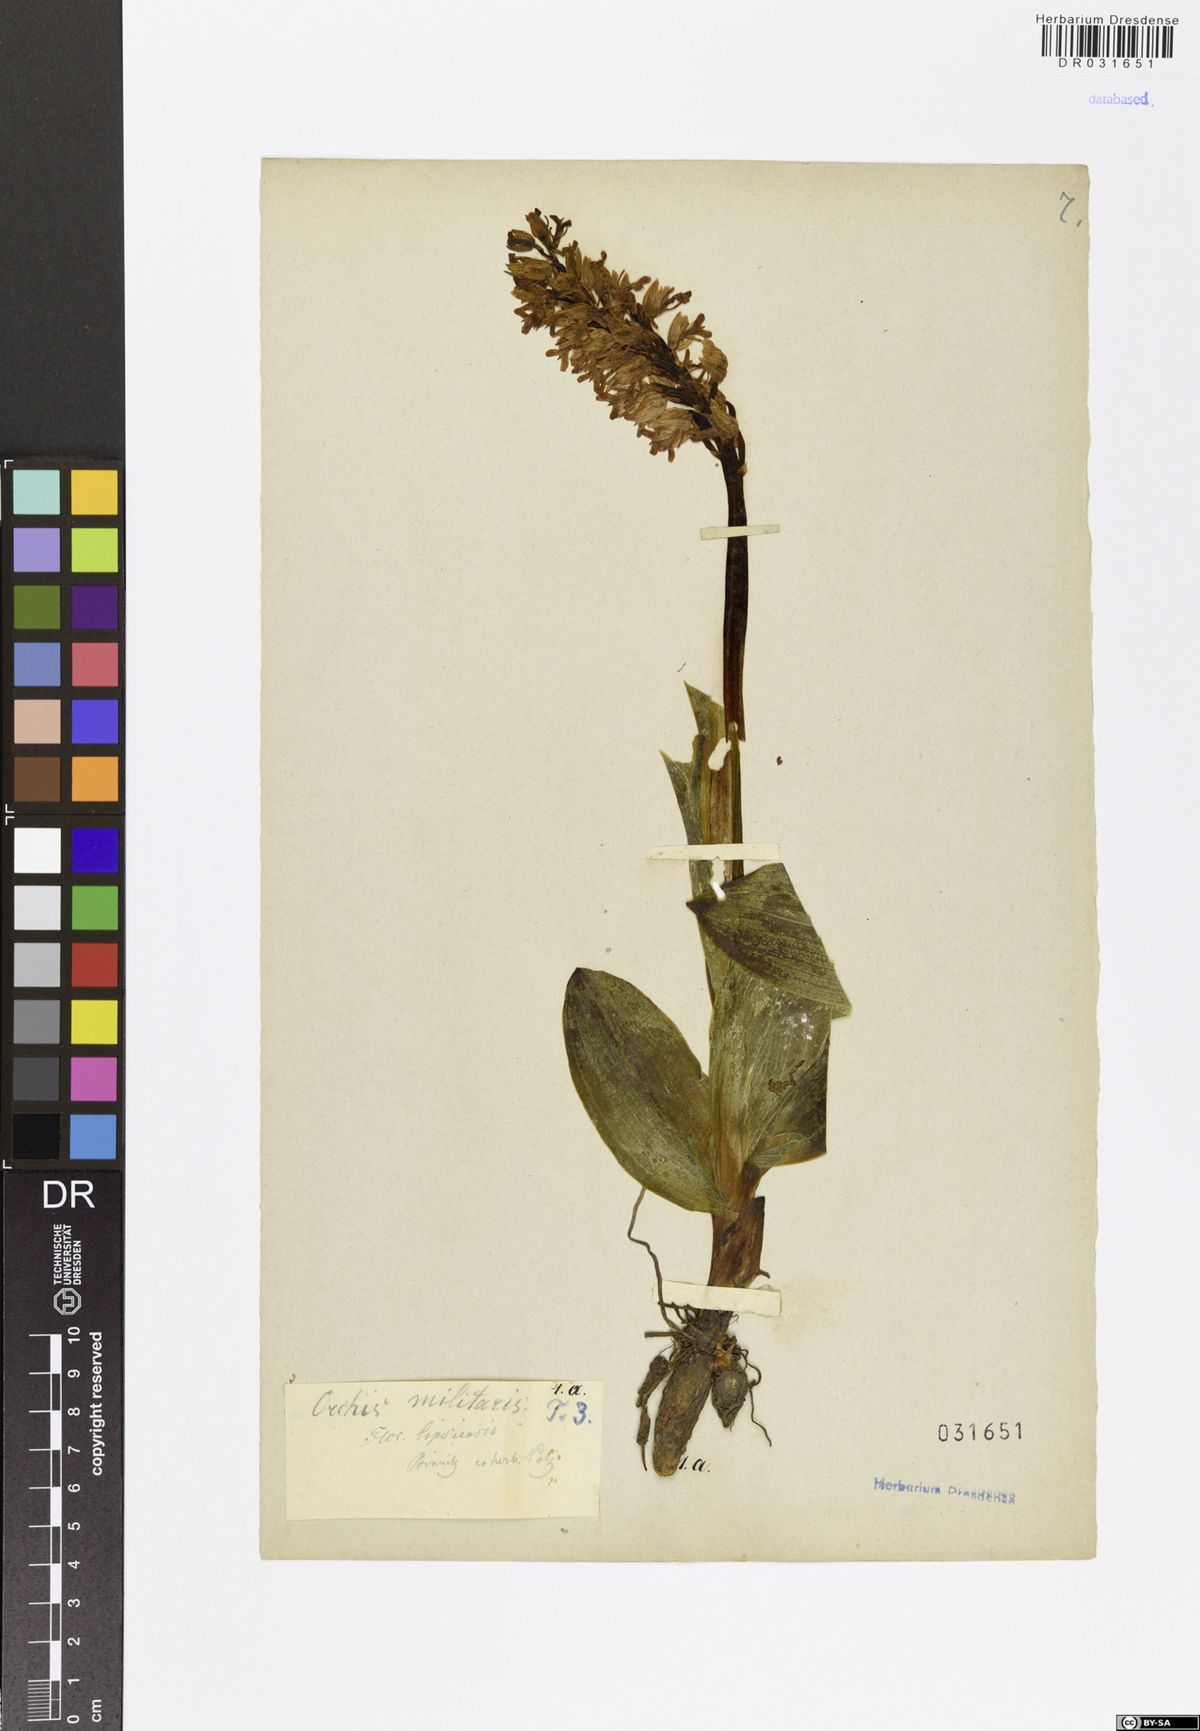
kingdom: Plantae
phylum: Tracheophyta
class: Liliopsida
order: Asparagales
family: Orchidaceae
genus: Orchis
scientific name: Orchis militaris
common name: Military orchid
